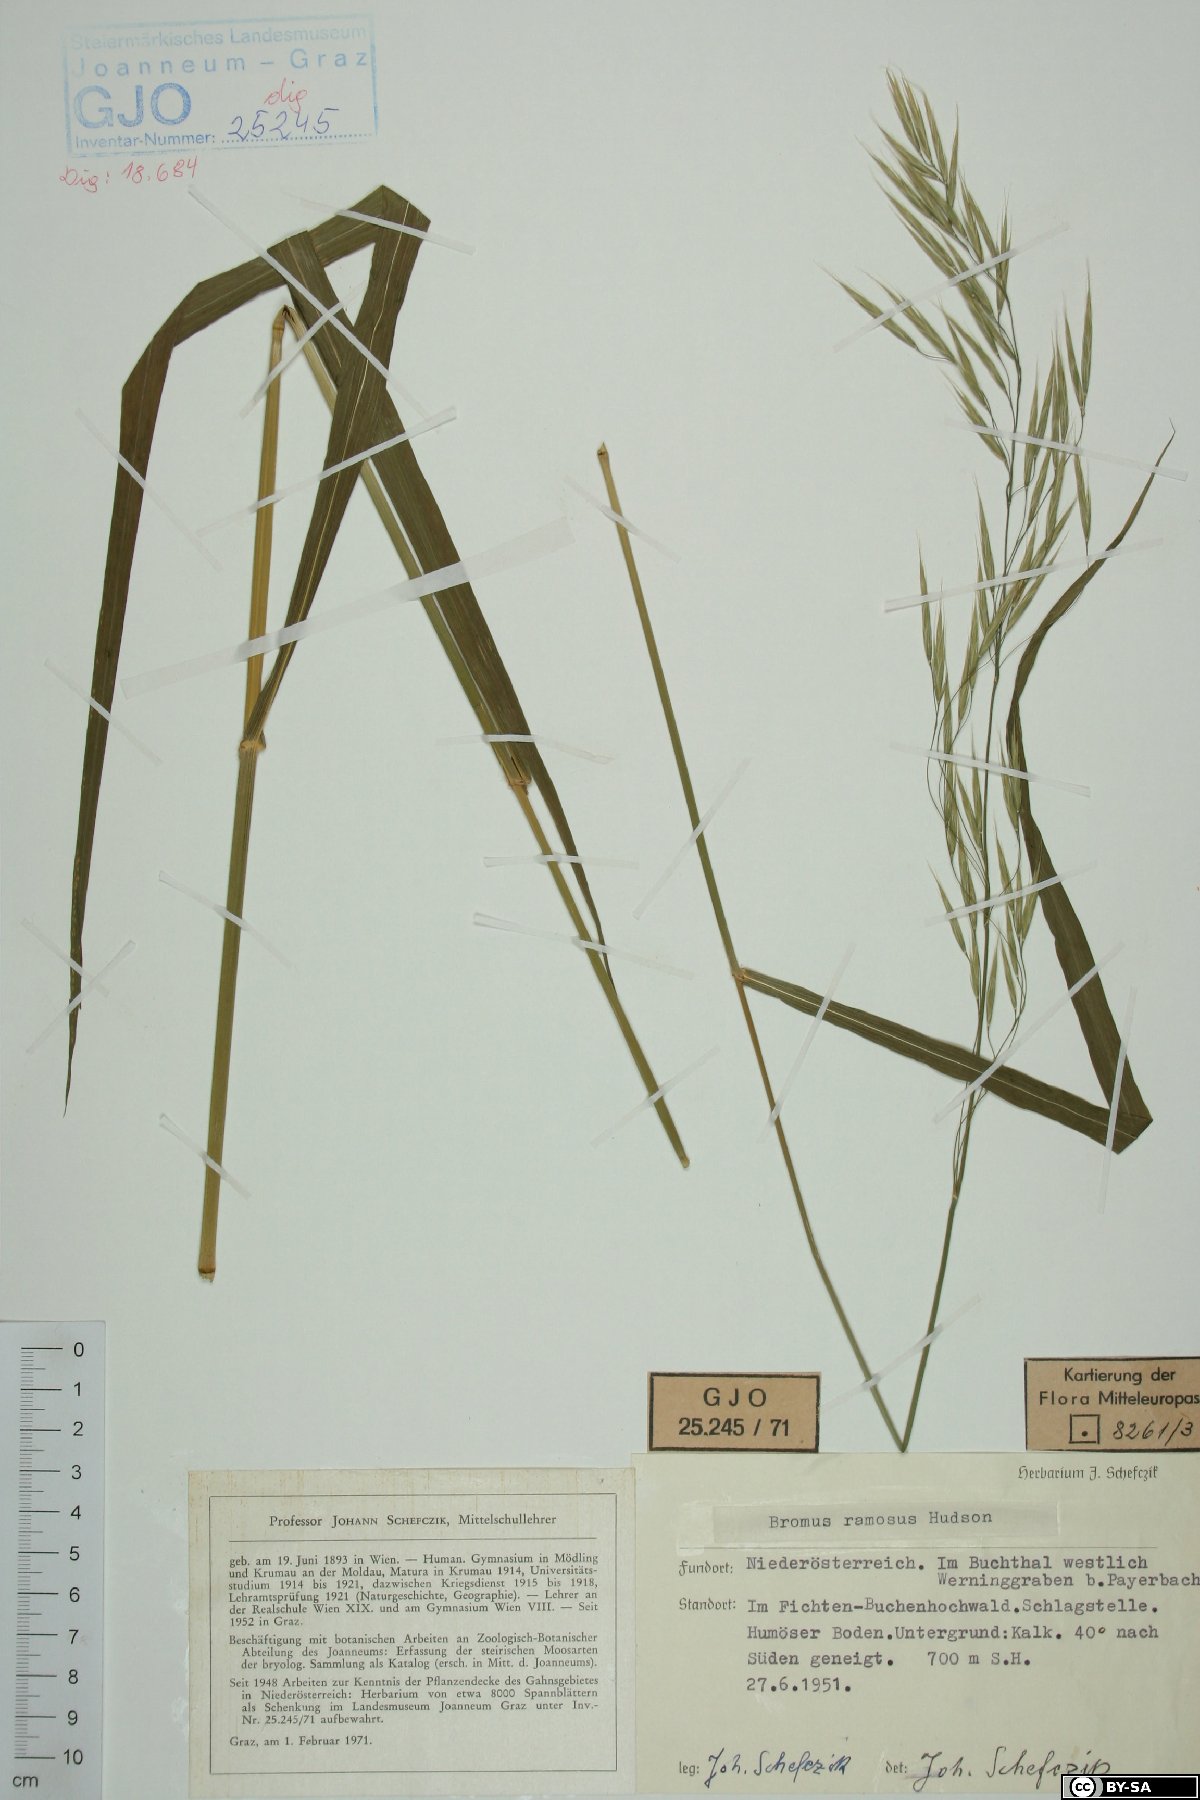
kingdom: Plantae
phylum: Tracheophyta
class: Liliopsida
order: Poales
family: Poaceae
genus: Bromus
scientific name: Bromus ramosus
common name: Hairy brome
